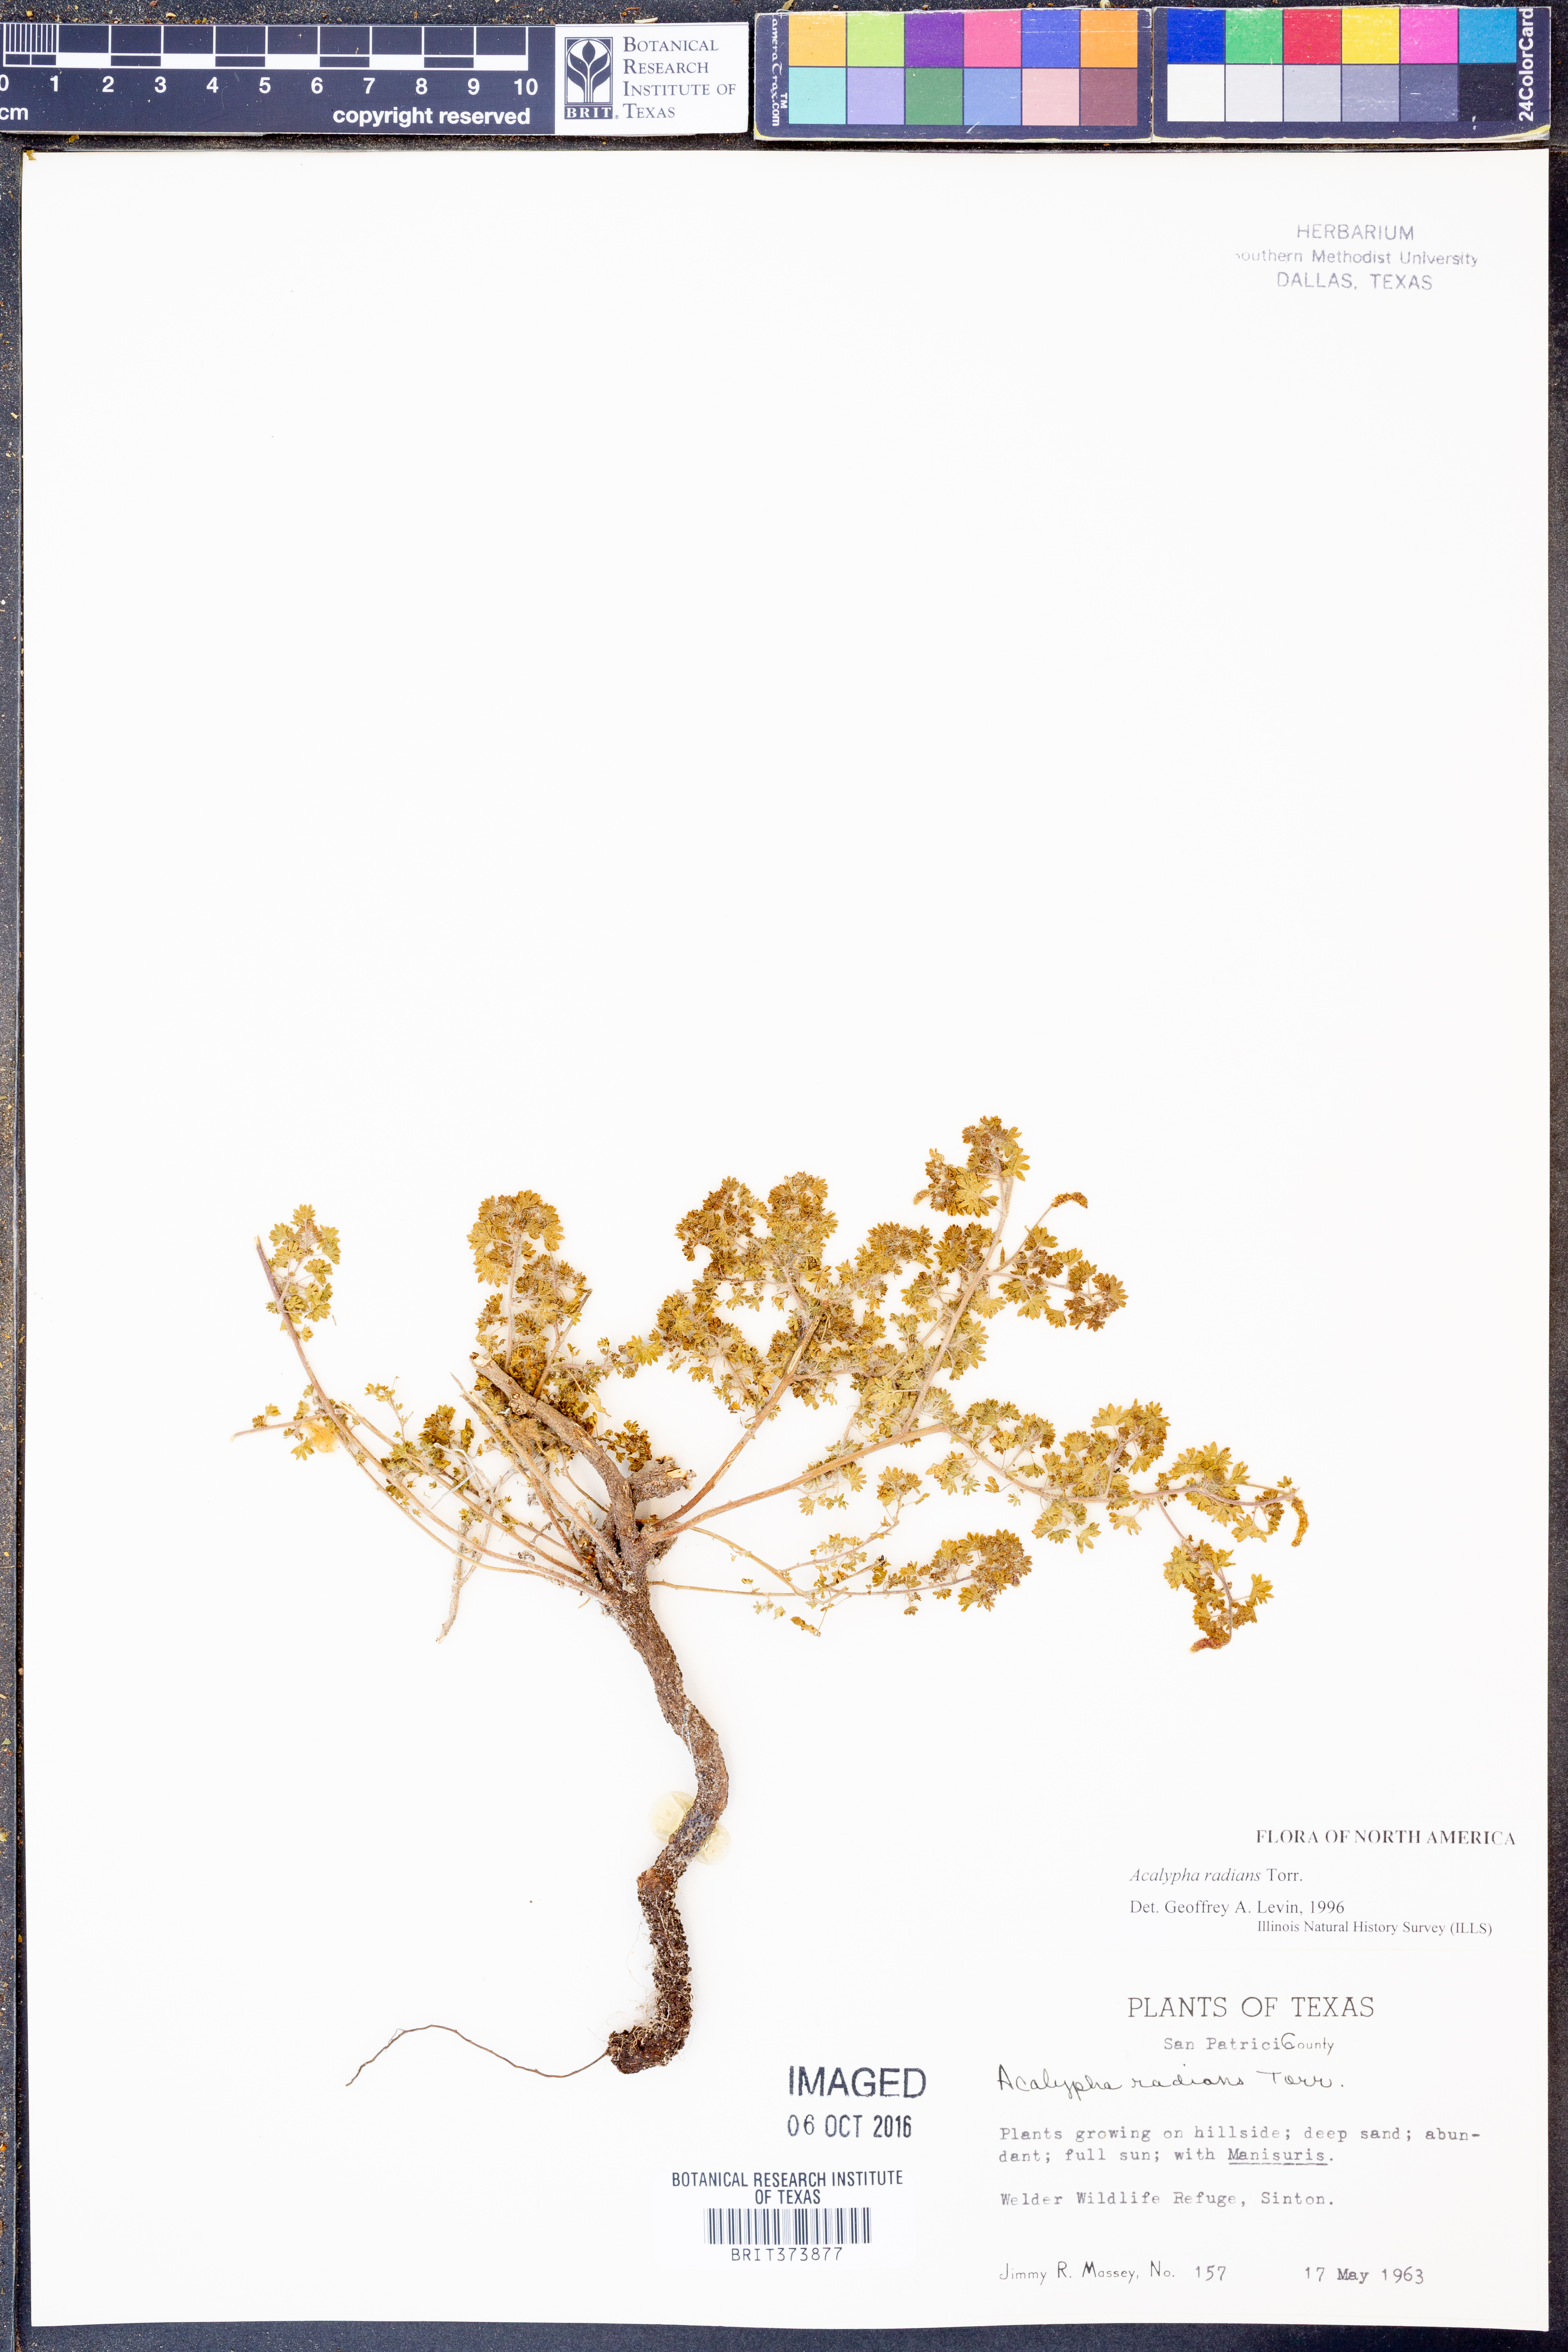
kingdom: Plantae
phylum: Tracheophyta
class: Magnoliopsida
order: Malpighiales
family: Euphorbiaceae
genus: Acalypha
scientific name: Acalypha radians
